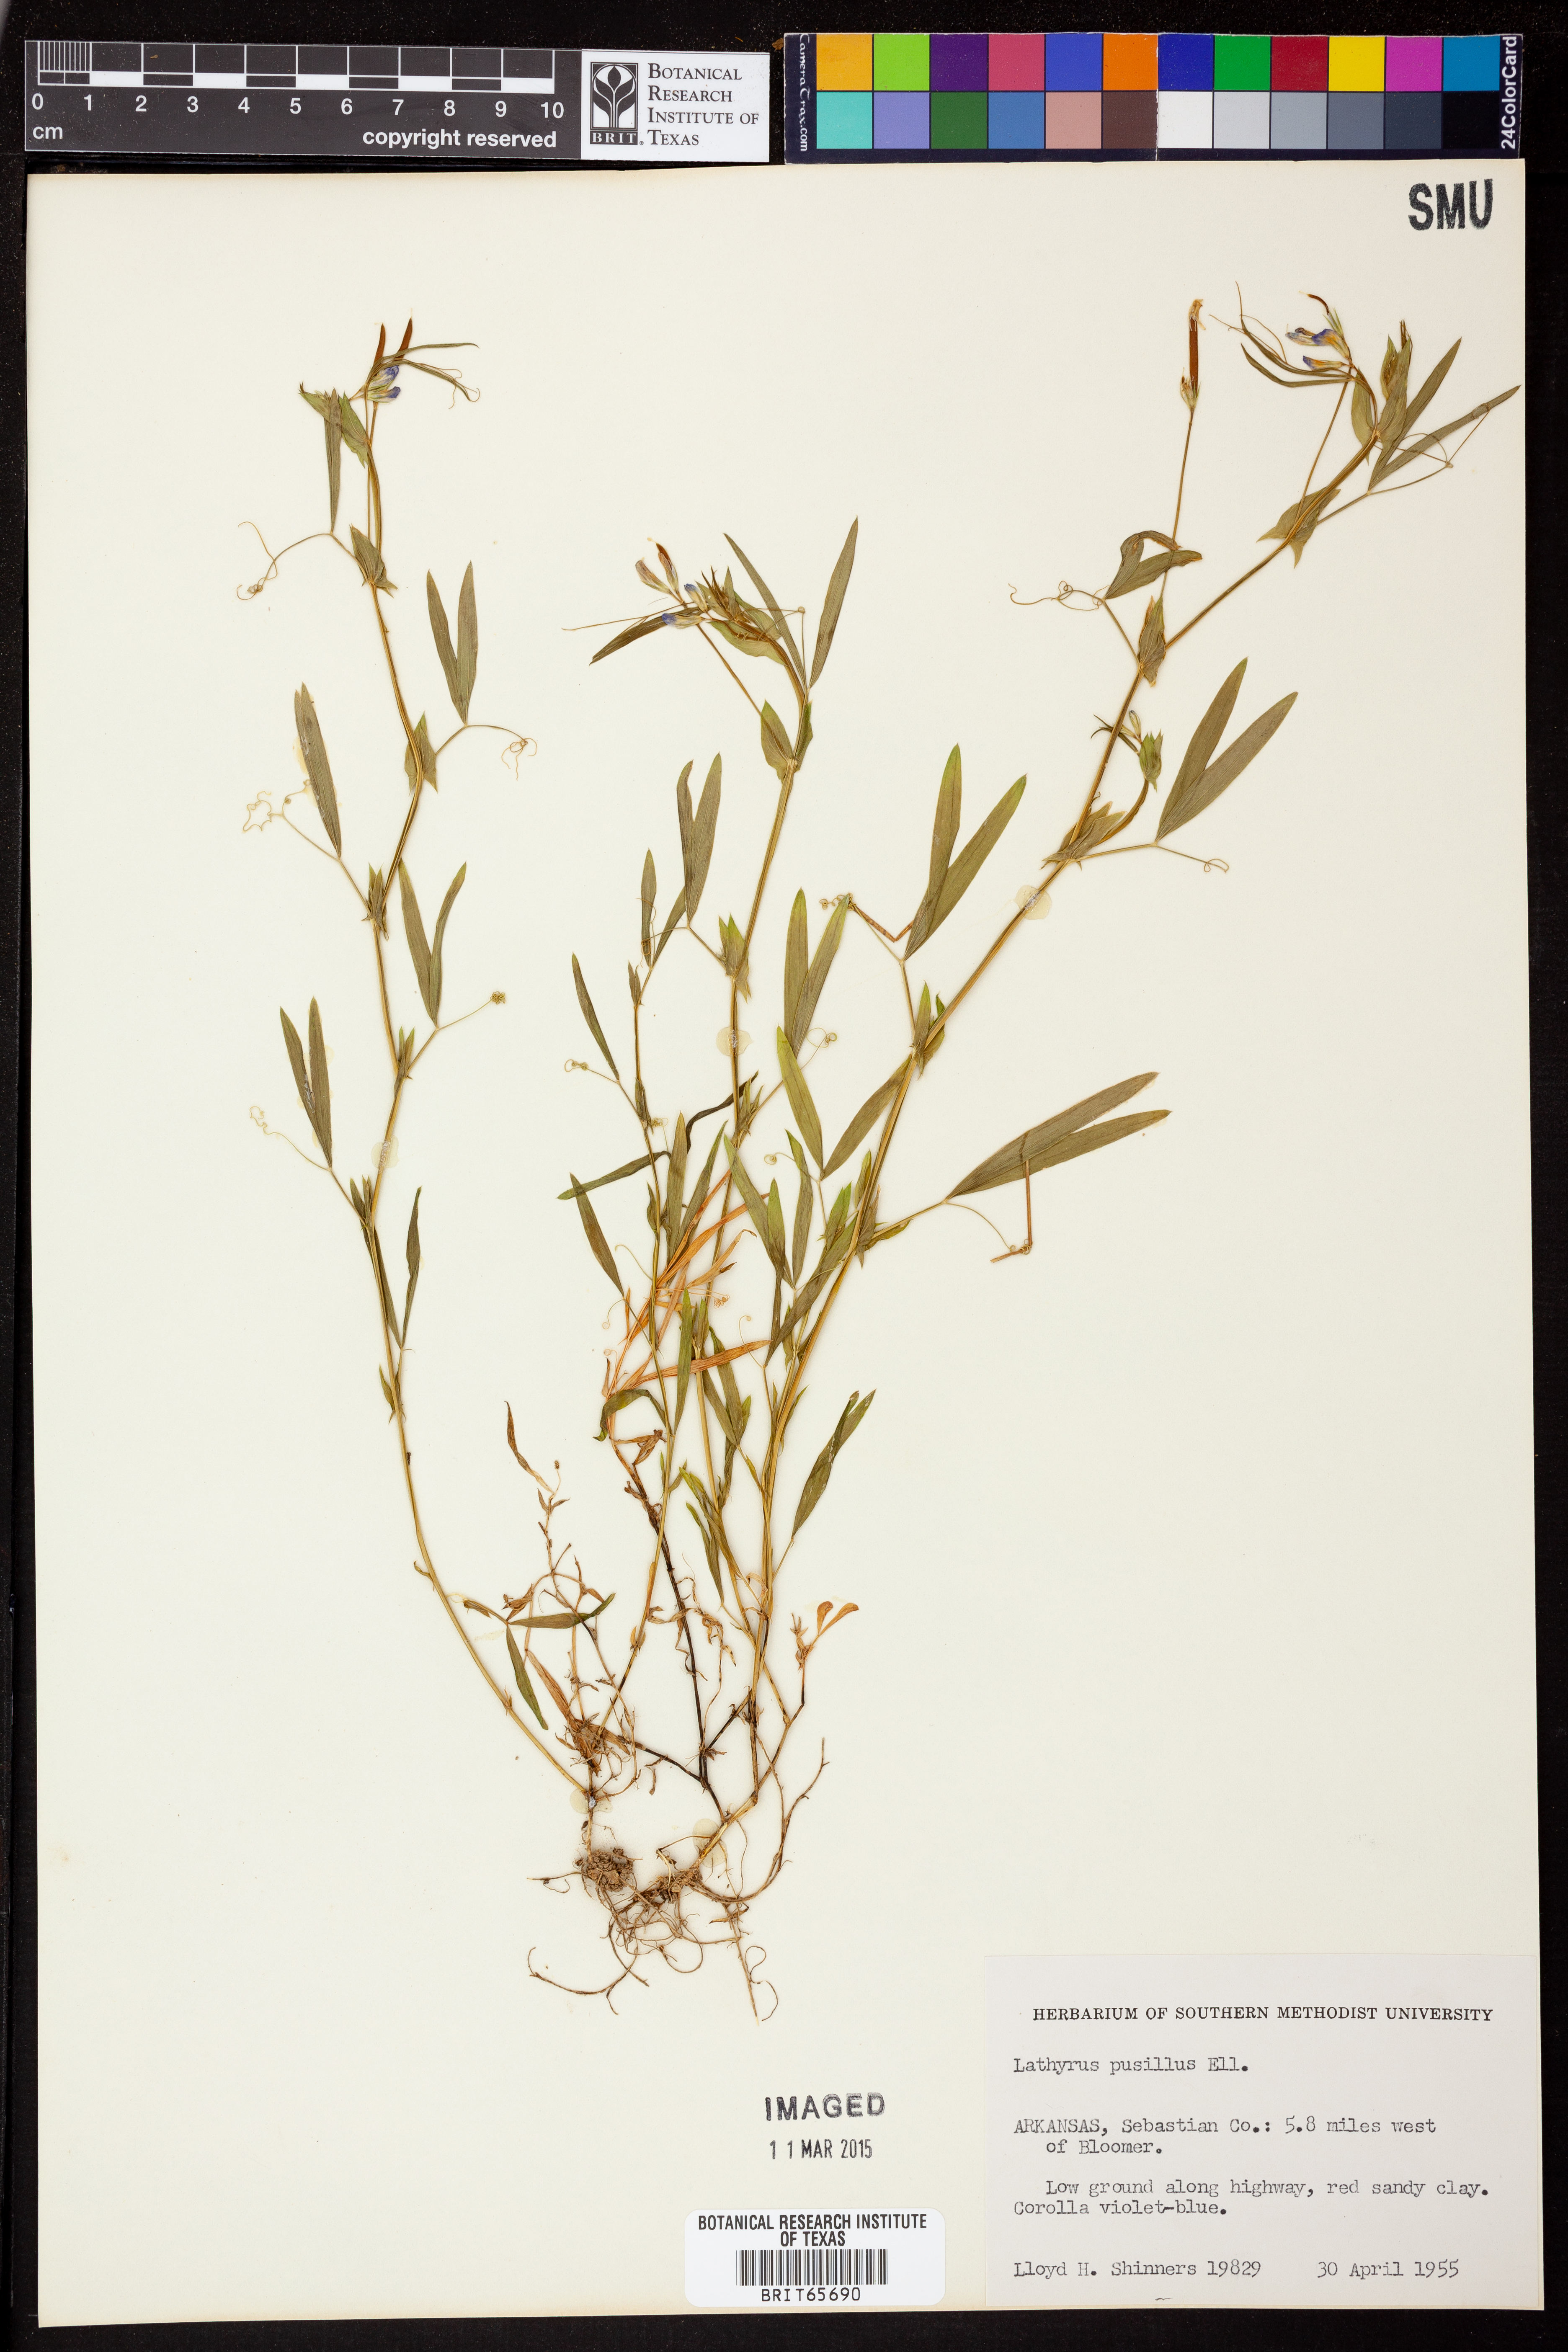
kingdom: Plantae
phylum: Tracheophyta
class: Magnoliopsida
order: Fabales
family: Fabaceae
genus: Lathyrus
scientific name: Lathyrus
